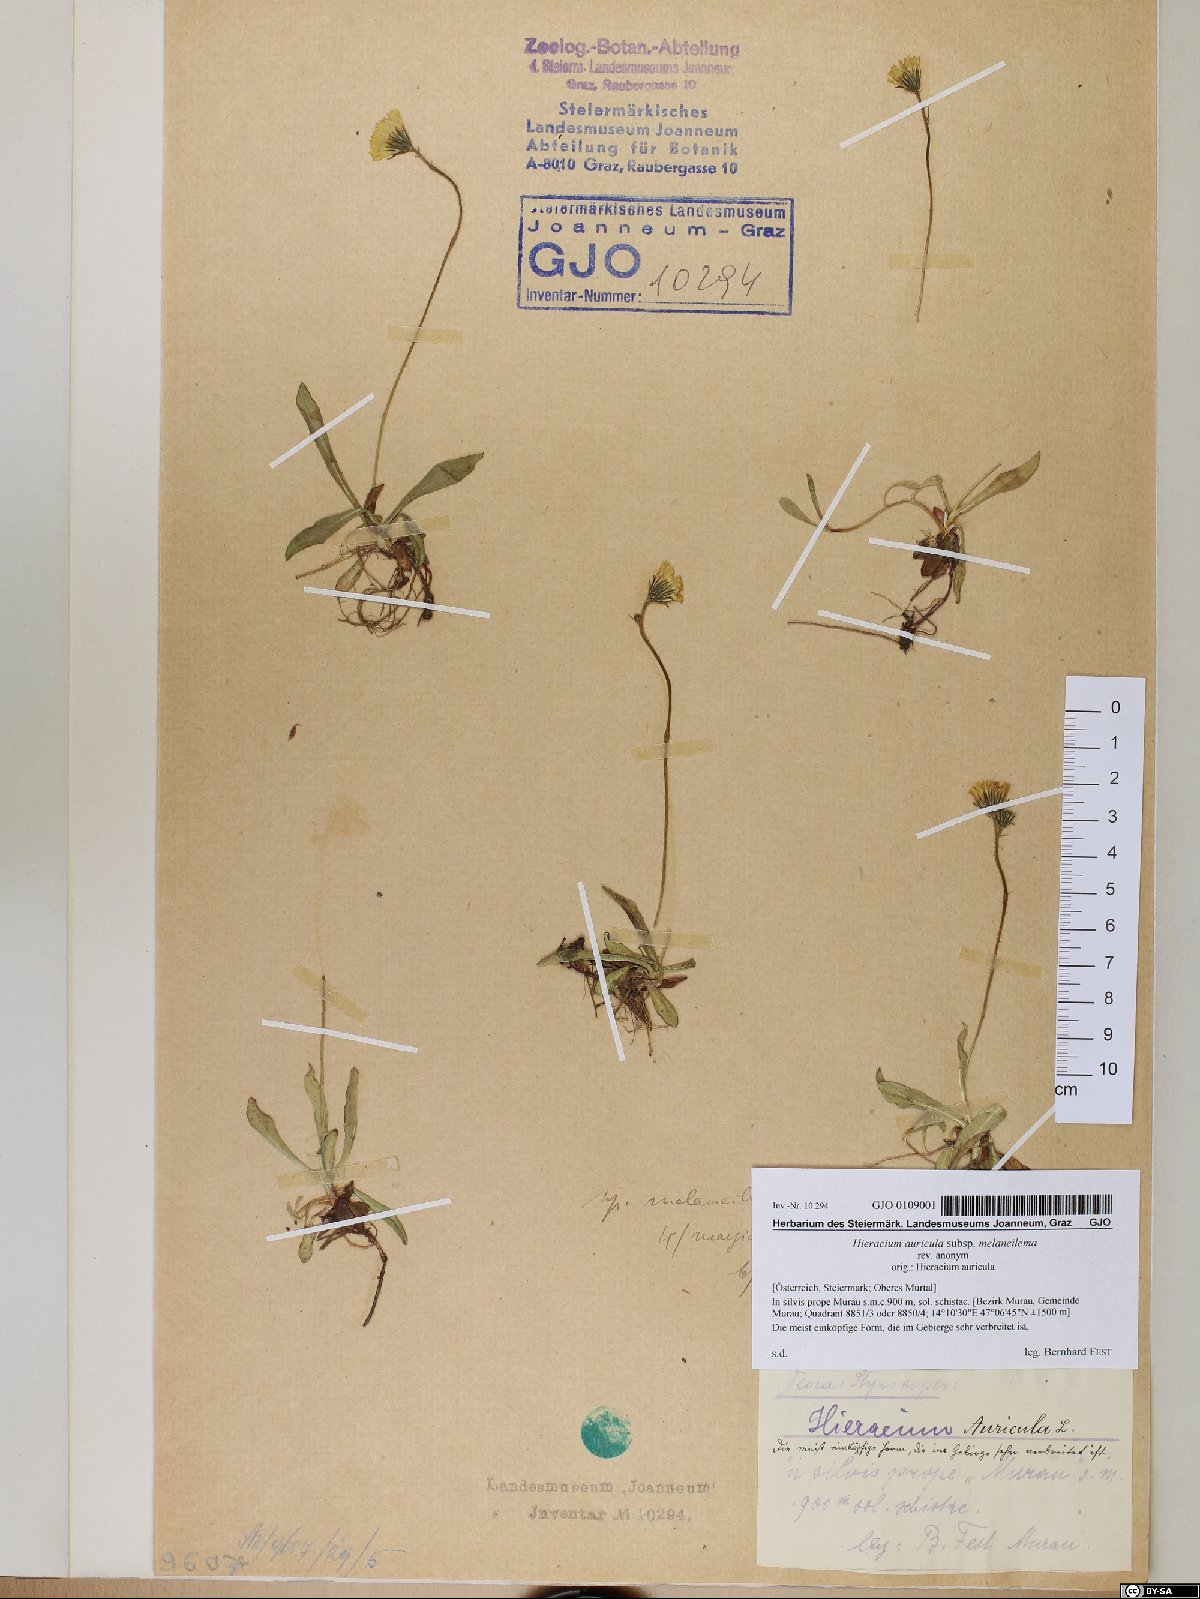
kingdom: Plantae
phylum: Tracheophyta
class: Magnoliopsida
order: Asterales
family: Asteraceae
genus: Pilosella
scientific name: Pilosella lactucella
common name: Glaucous fox-and-cubs
